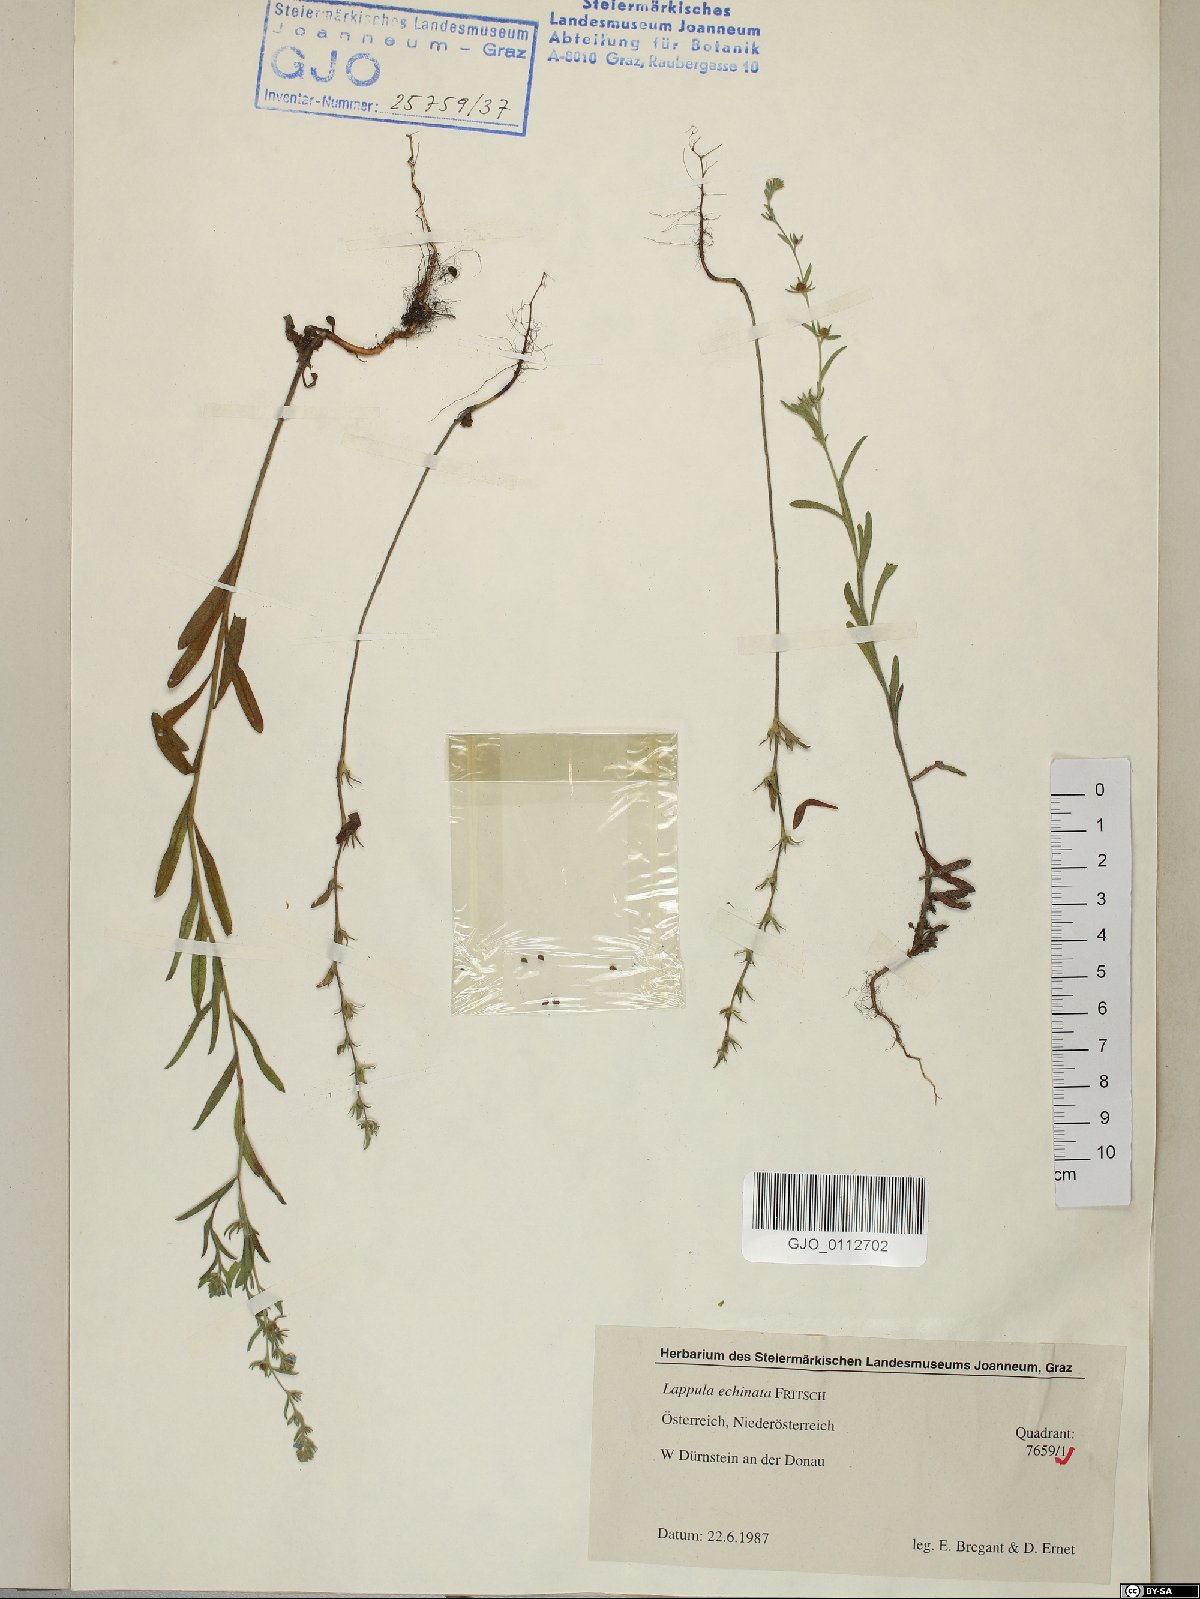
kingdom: Plantae
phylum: Tracheophyta
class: Magnoliopsida
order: Boraginales
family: Boraginaceae
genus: Lappula
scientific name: Lappula squarrosa
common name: European stickseed
